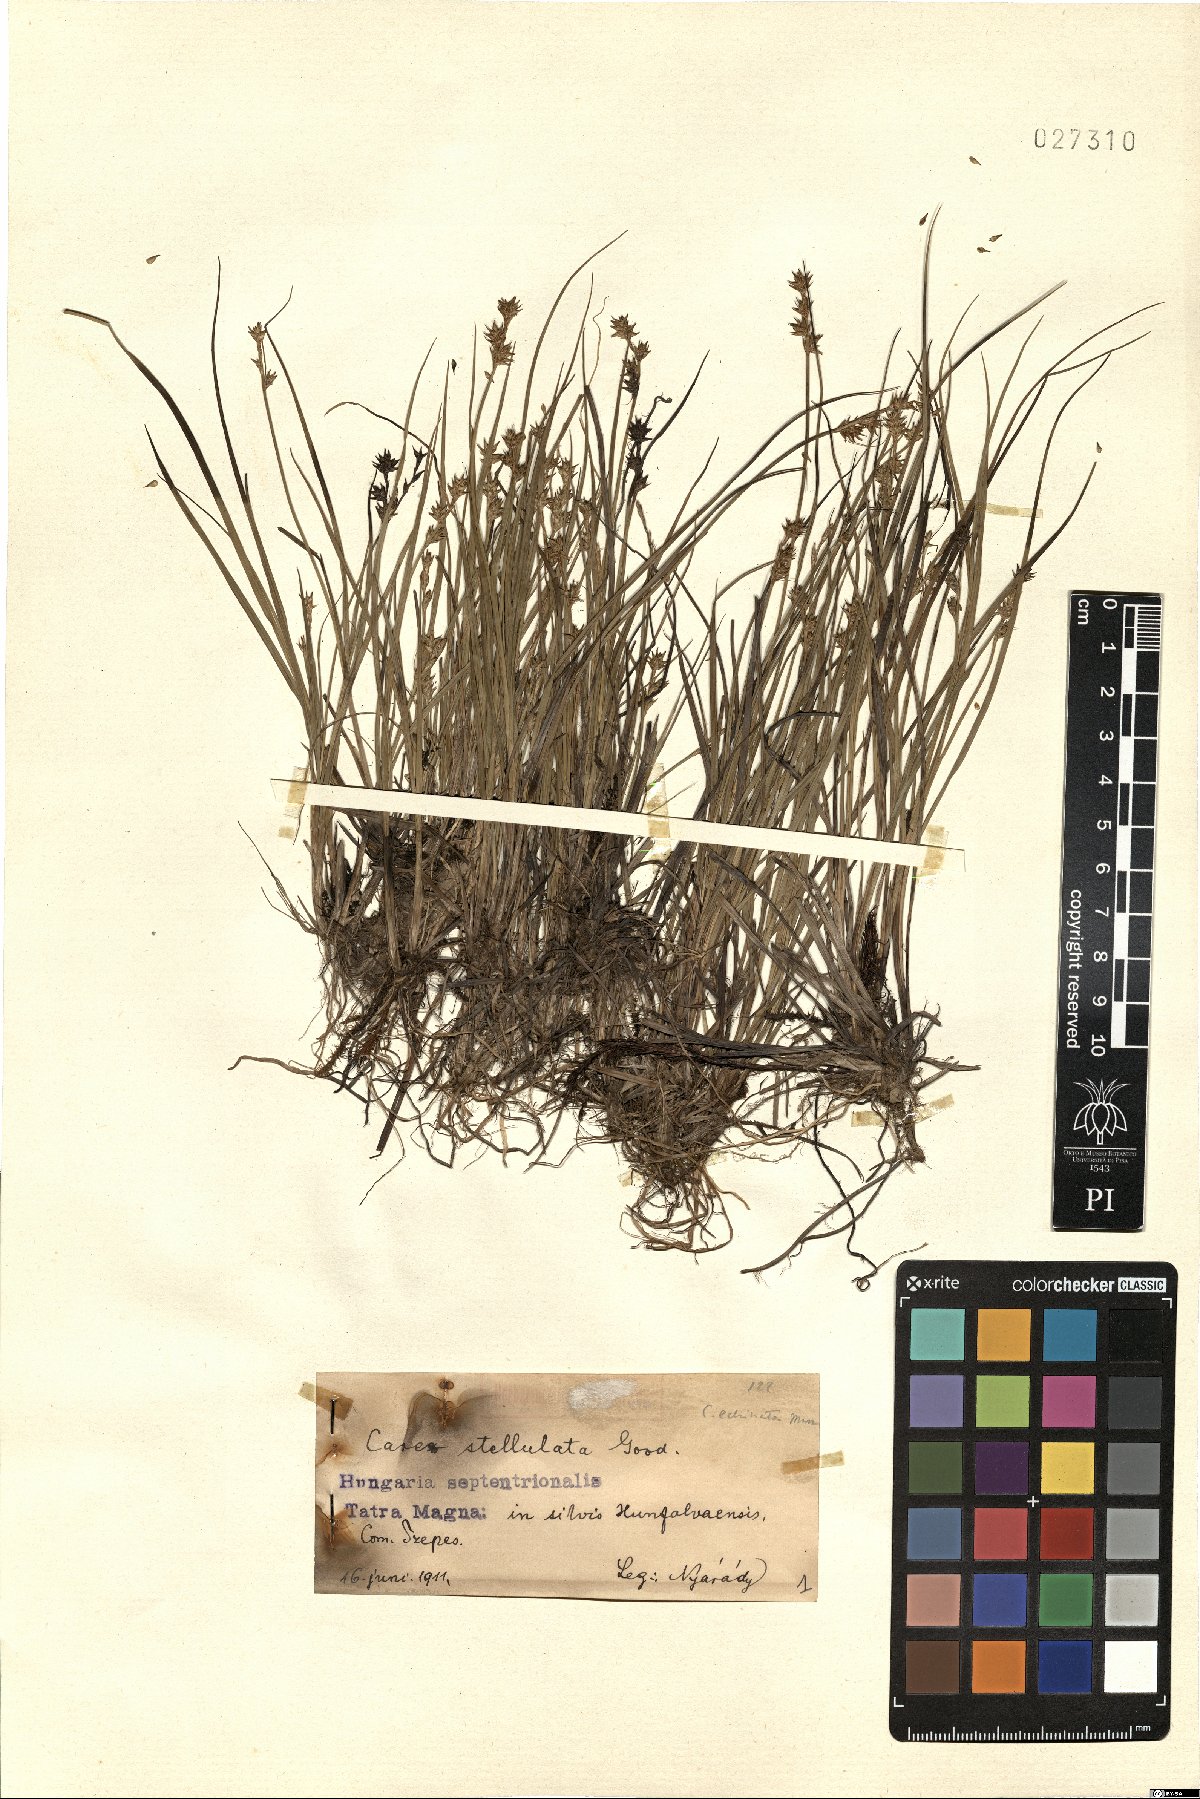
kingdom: Plantae
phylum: Tracheophyta
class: Liliopsida
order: Poales
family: Cyperaceae
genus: Carex
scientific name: Carex echinata
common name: Star sedge
